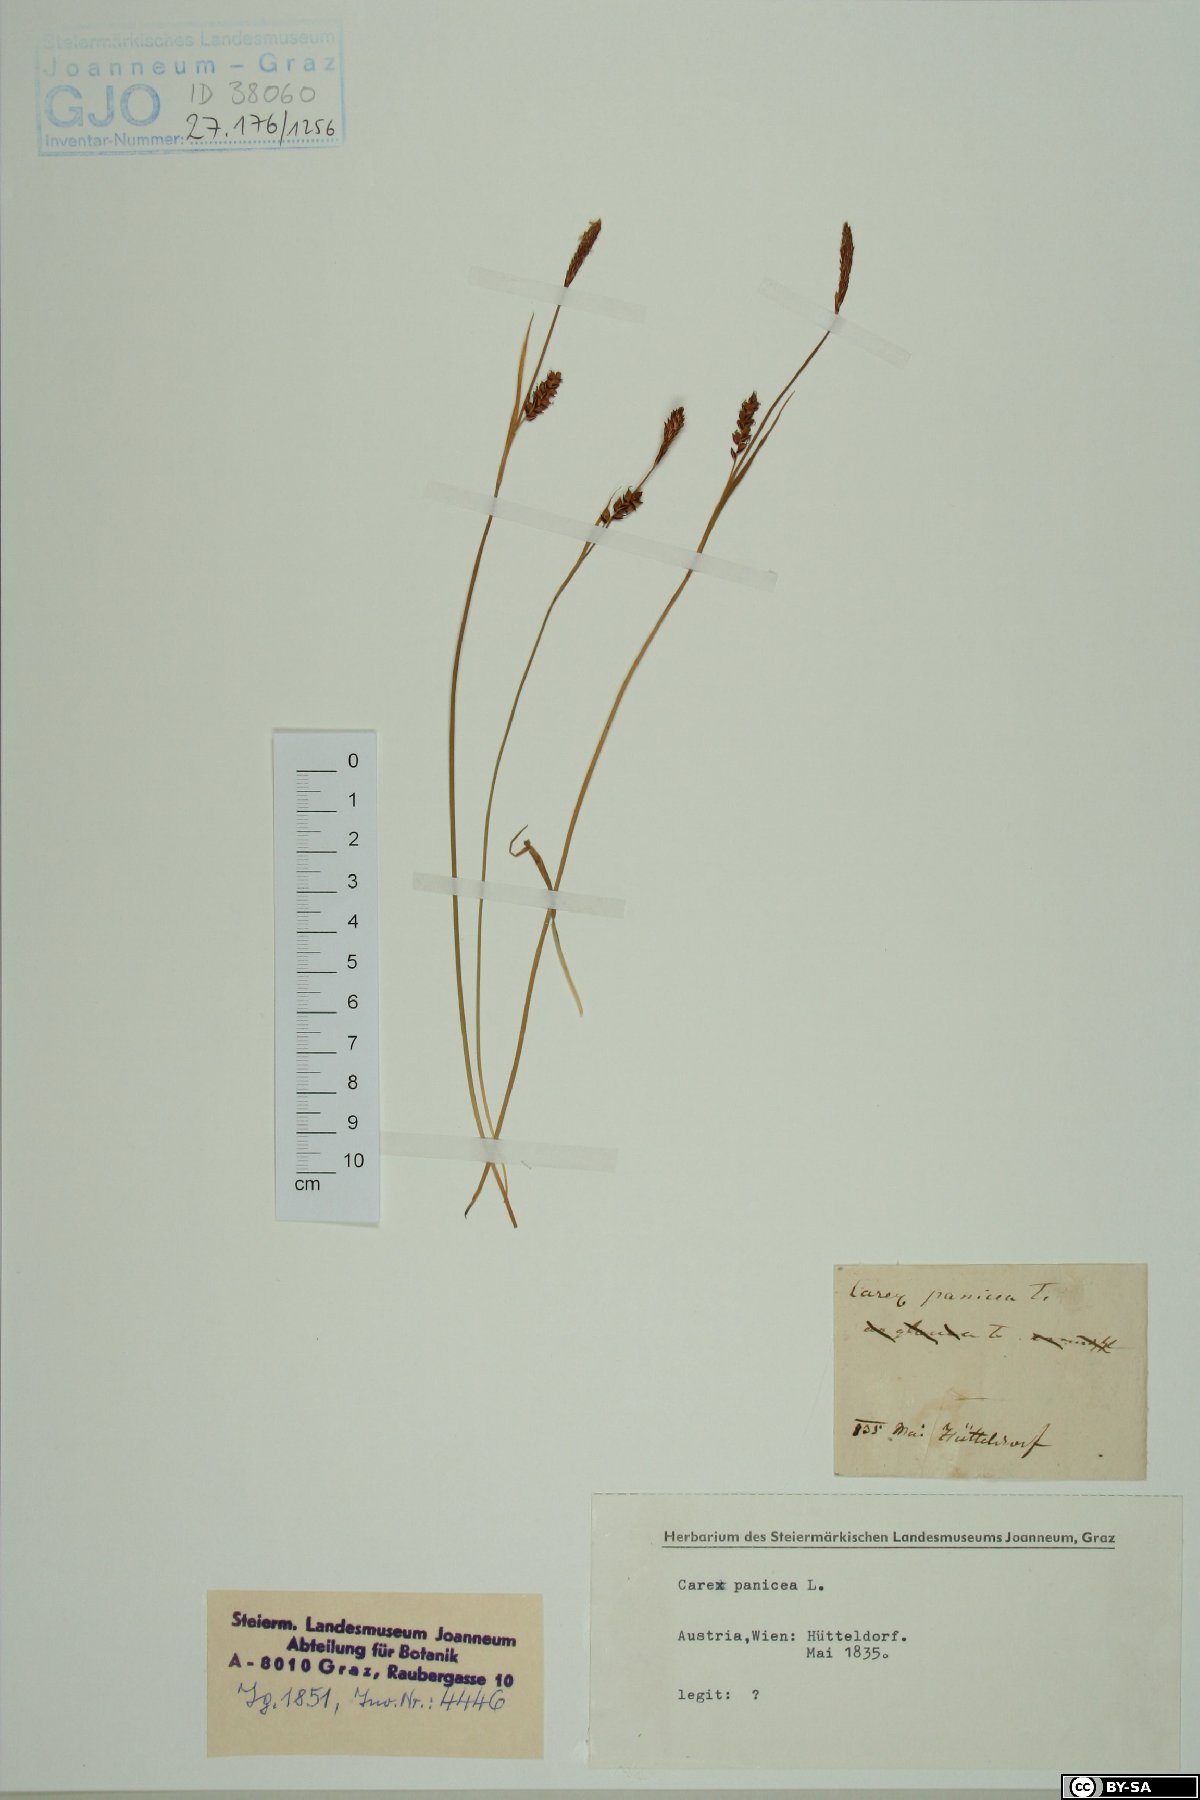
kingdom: Plantae
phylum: Tracheophyta
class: Liliopsida
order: Poales
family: Cyperaceae
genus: Carex
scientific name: Carex panicea
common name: Carnation sedge
